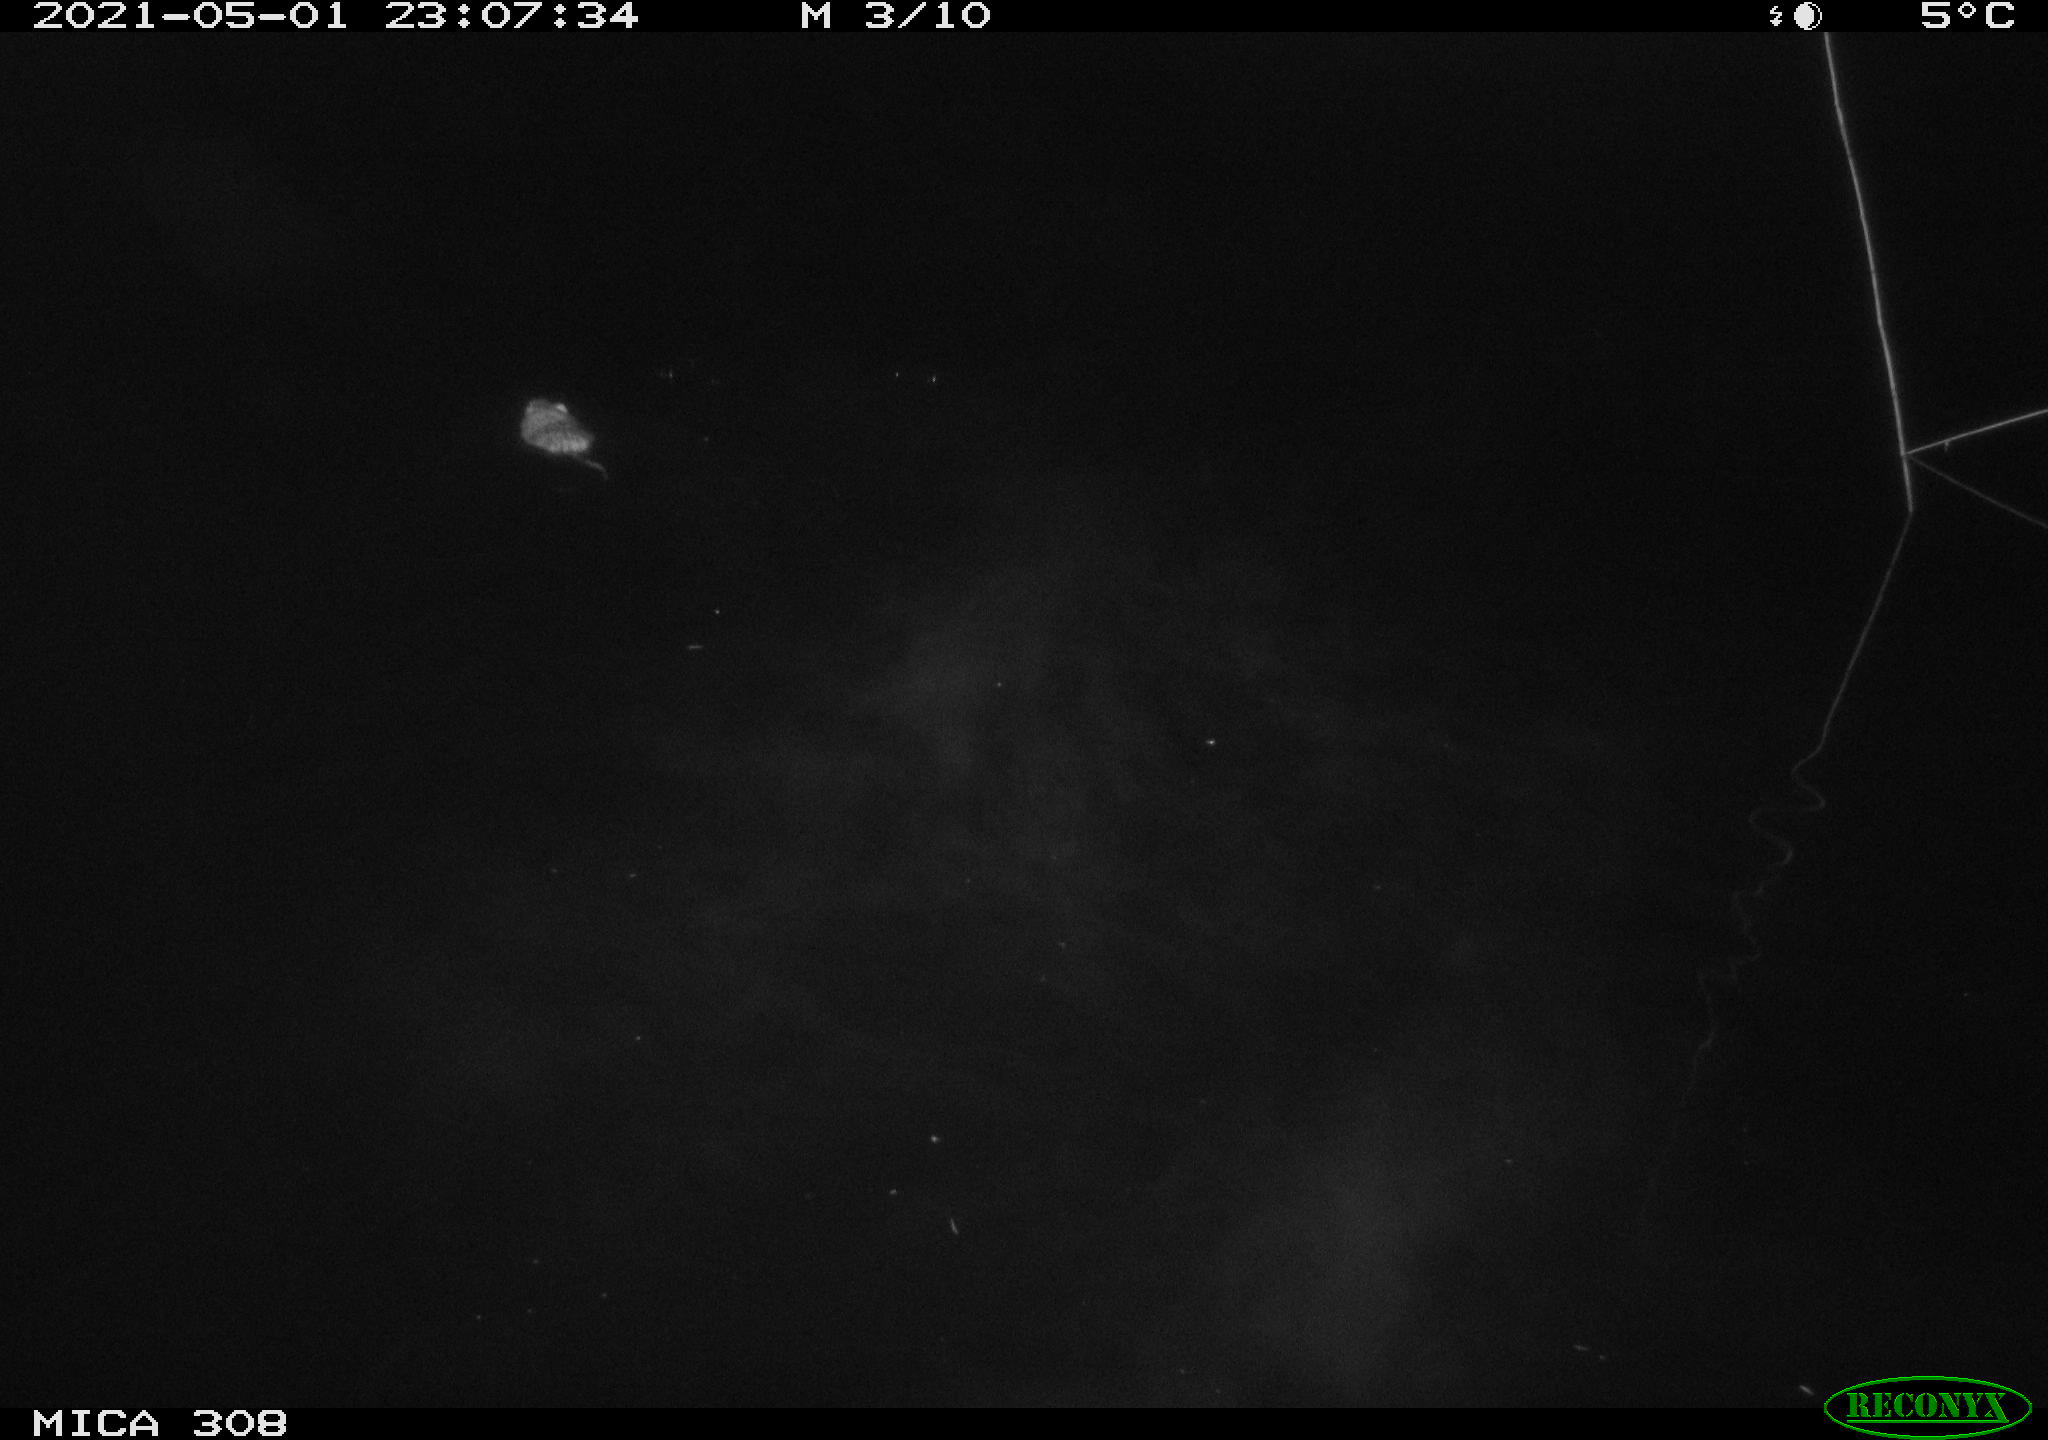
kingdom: Animalia
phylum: Chordata
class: Mammalia
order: Rodentia
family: Cricetidae
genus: Ondatra
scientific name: Ondatra zibethicus
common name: Muskrat
